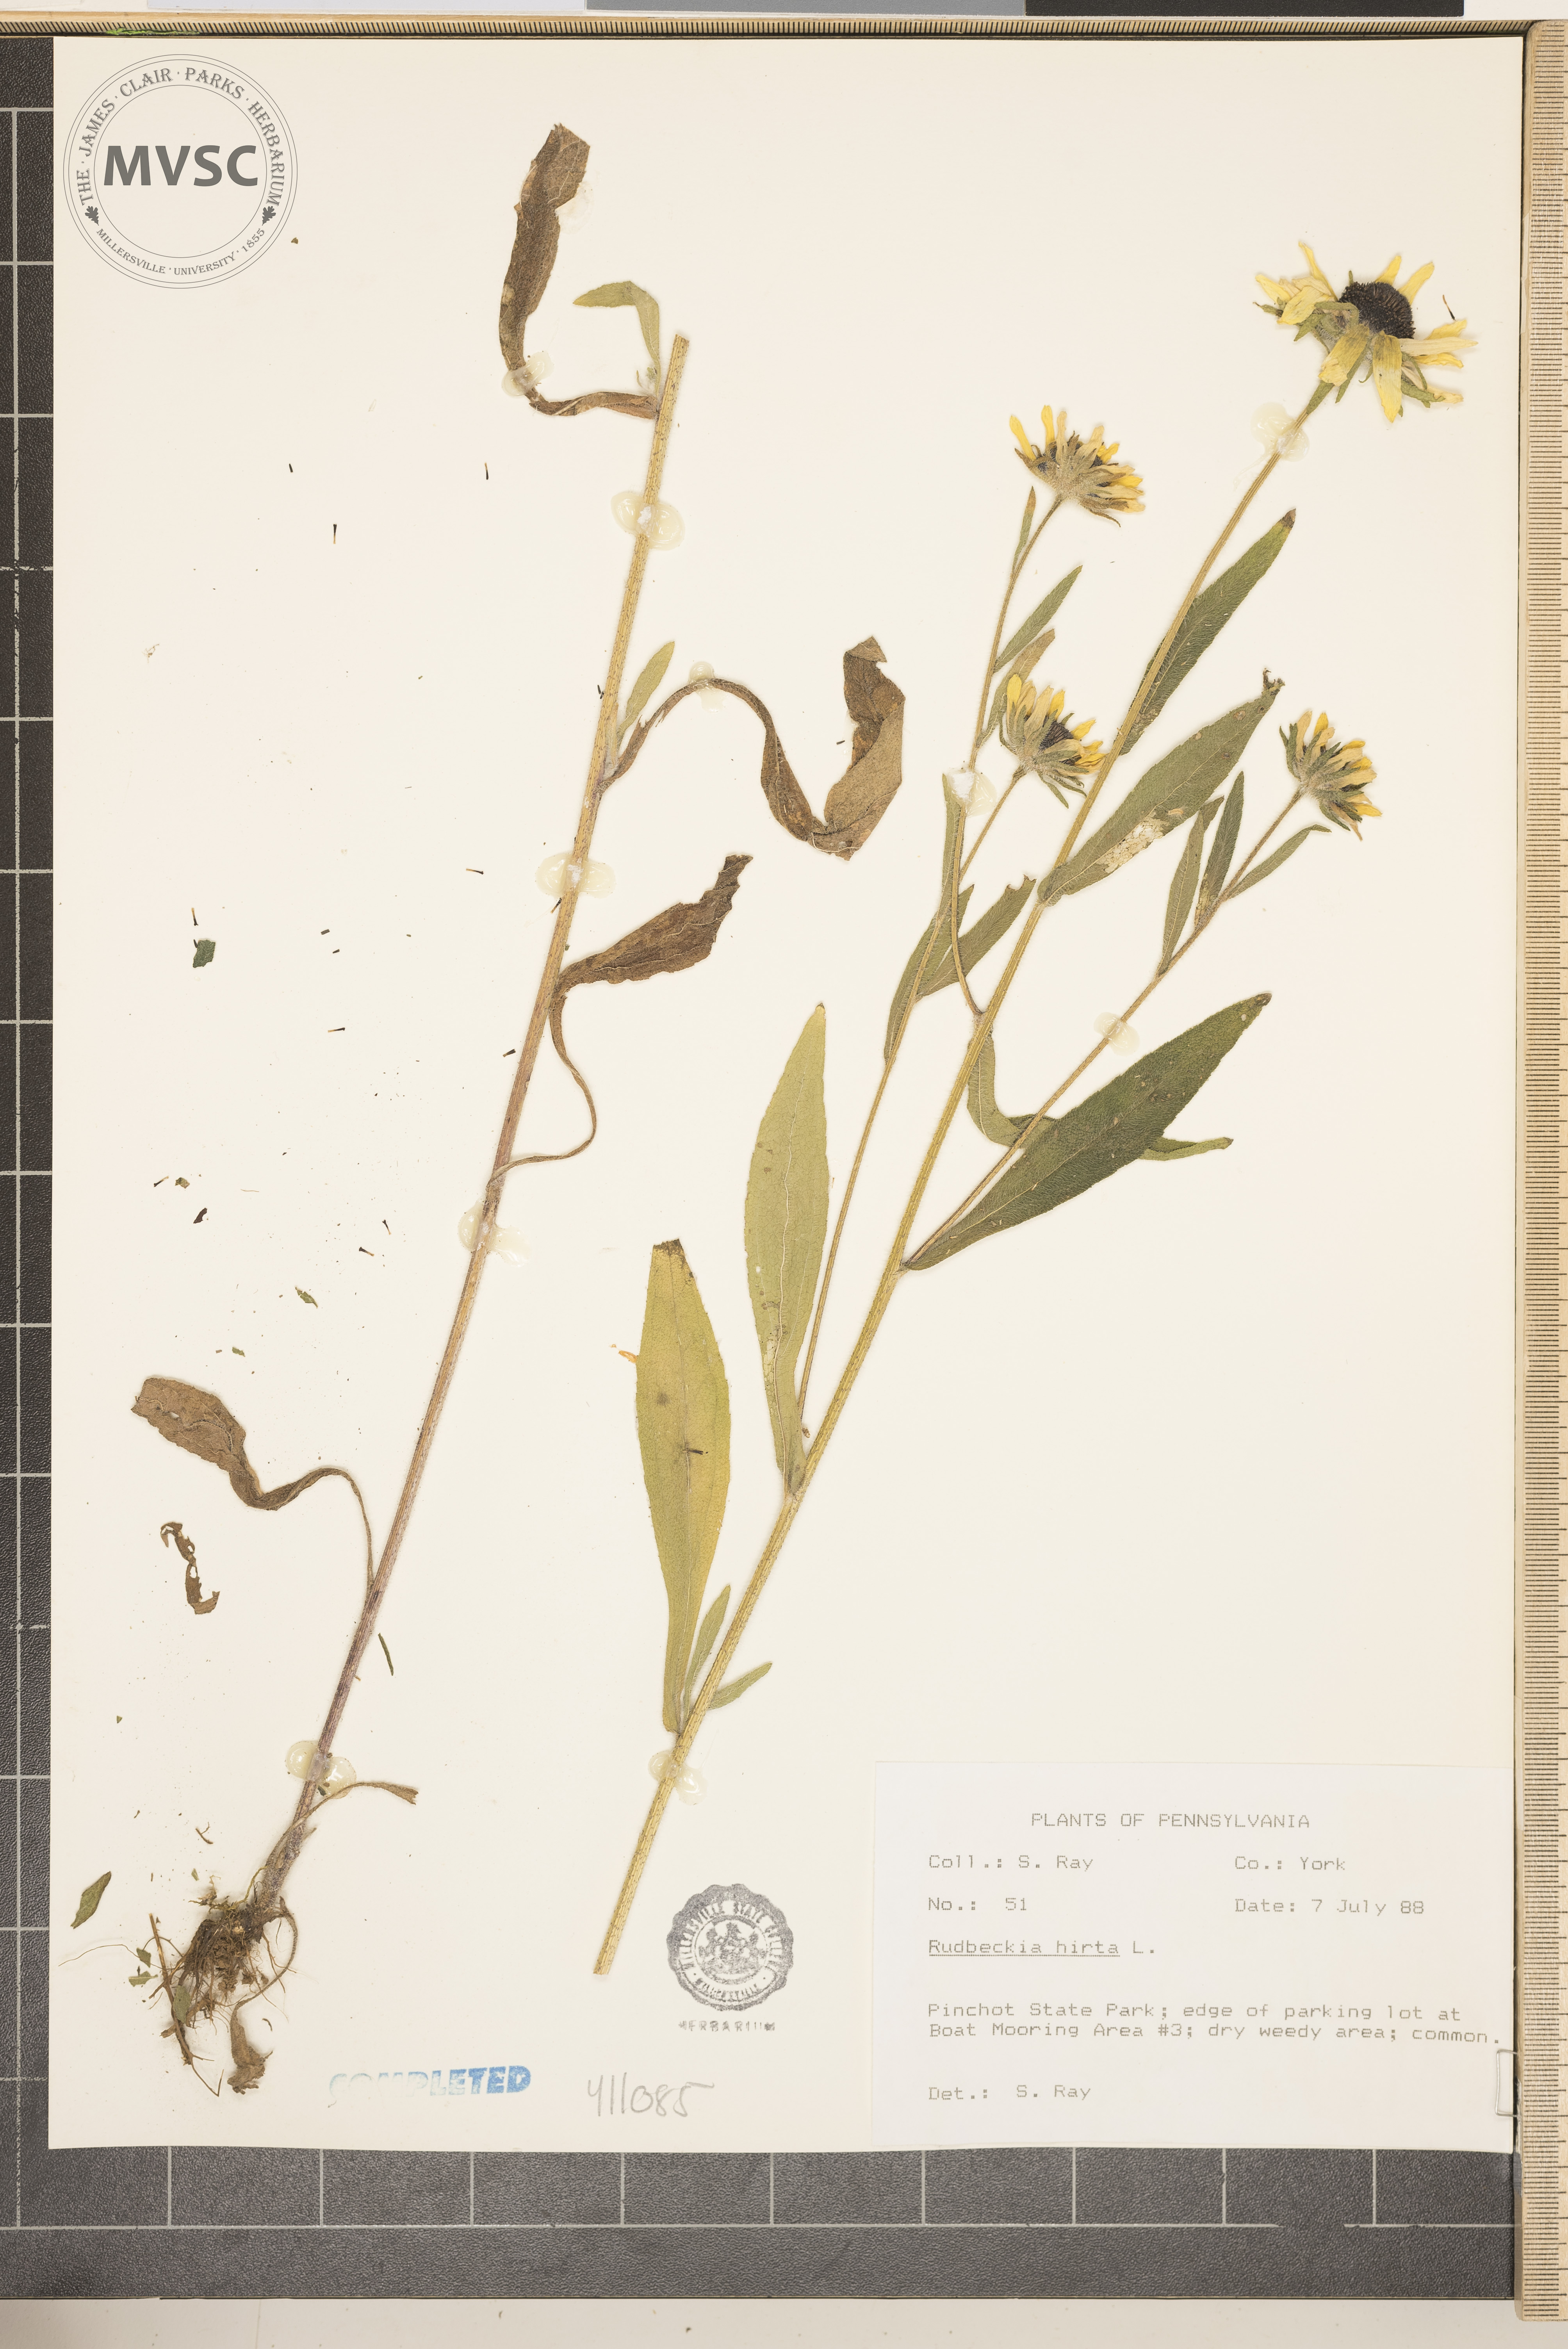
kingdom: Plantae
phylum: Tracheophyta
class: Magnoliopsida
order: Asterales
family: Asteraceae
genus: Rudbeckia
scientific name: Rudbeckia hirta
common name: Black-eyed-susan
